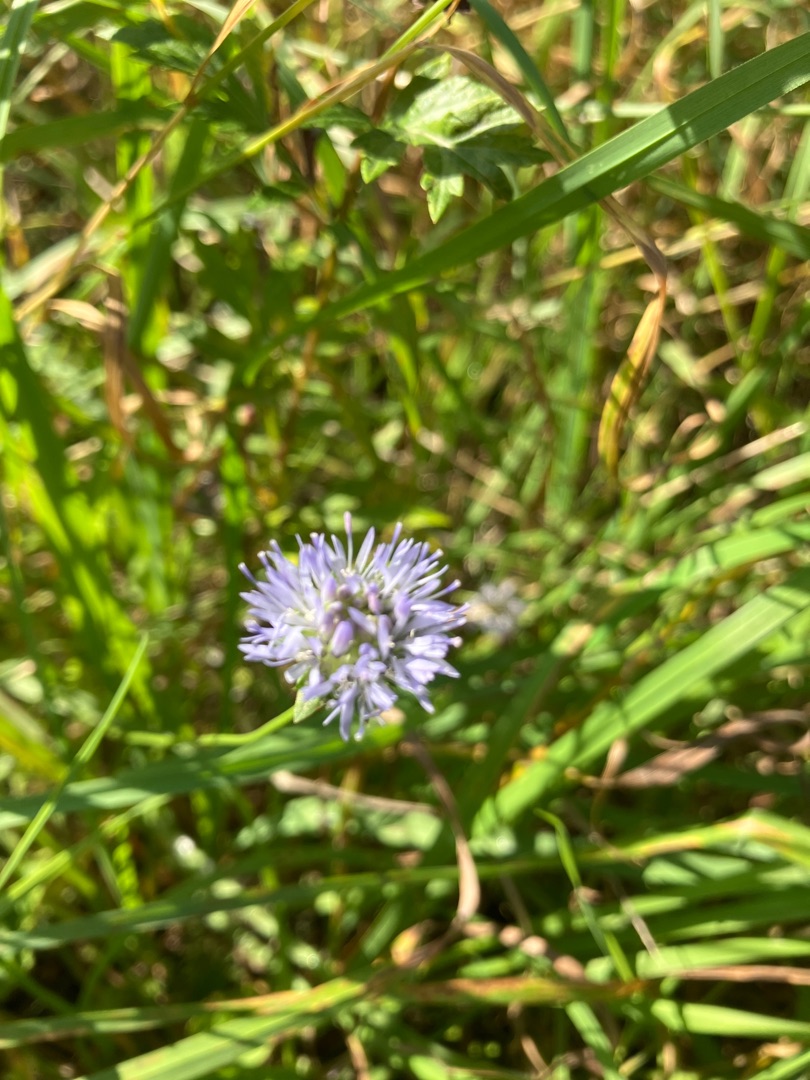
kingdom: Plantae
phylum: Tracheophyta
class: Magnoliopsida
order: Asterales
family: Campanulaceae
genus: Jasione
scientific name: Jasione montana
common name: Blåmunke
